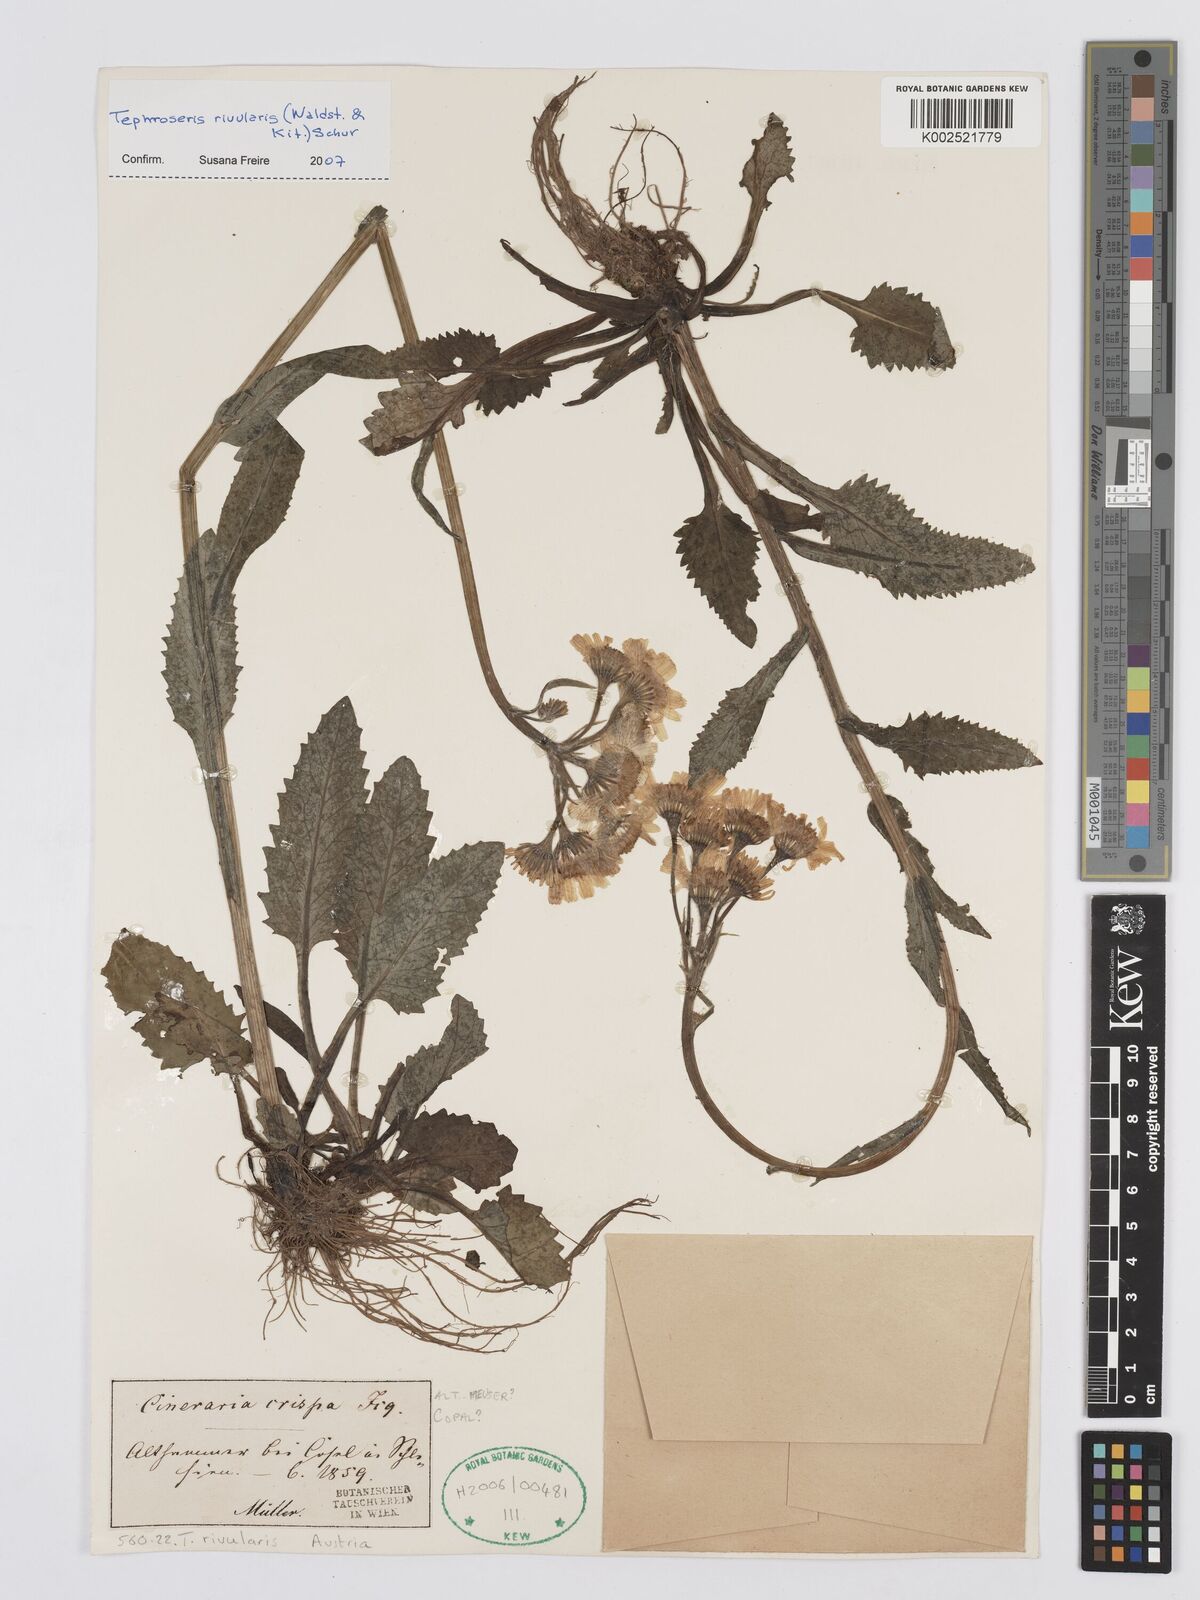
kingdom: Plantae
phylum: Tracheophyta
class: Magnoliopsida
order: Asterales
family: Asteraceae
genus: Tephroseris
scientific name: Tephroseris crispa
